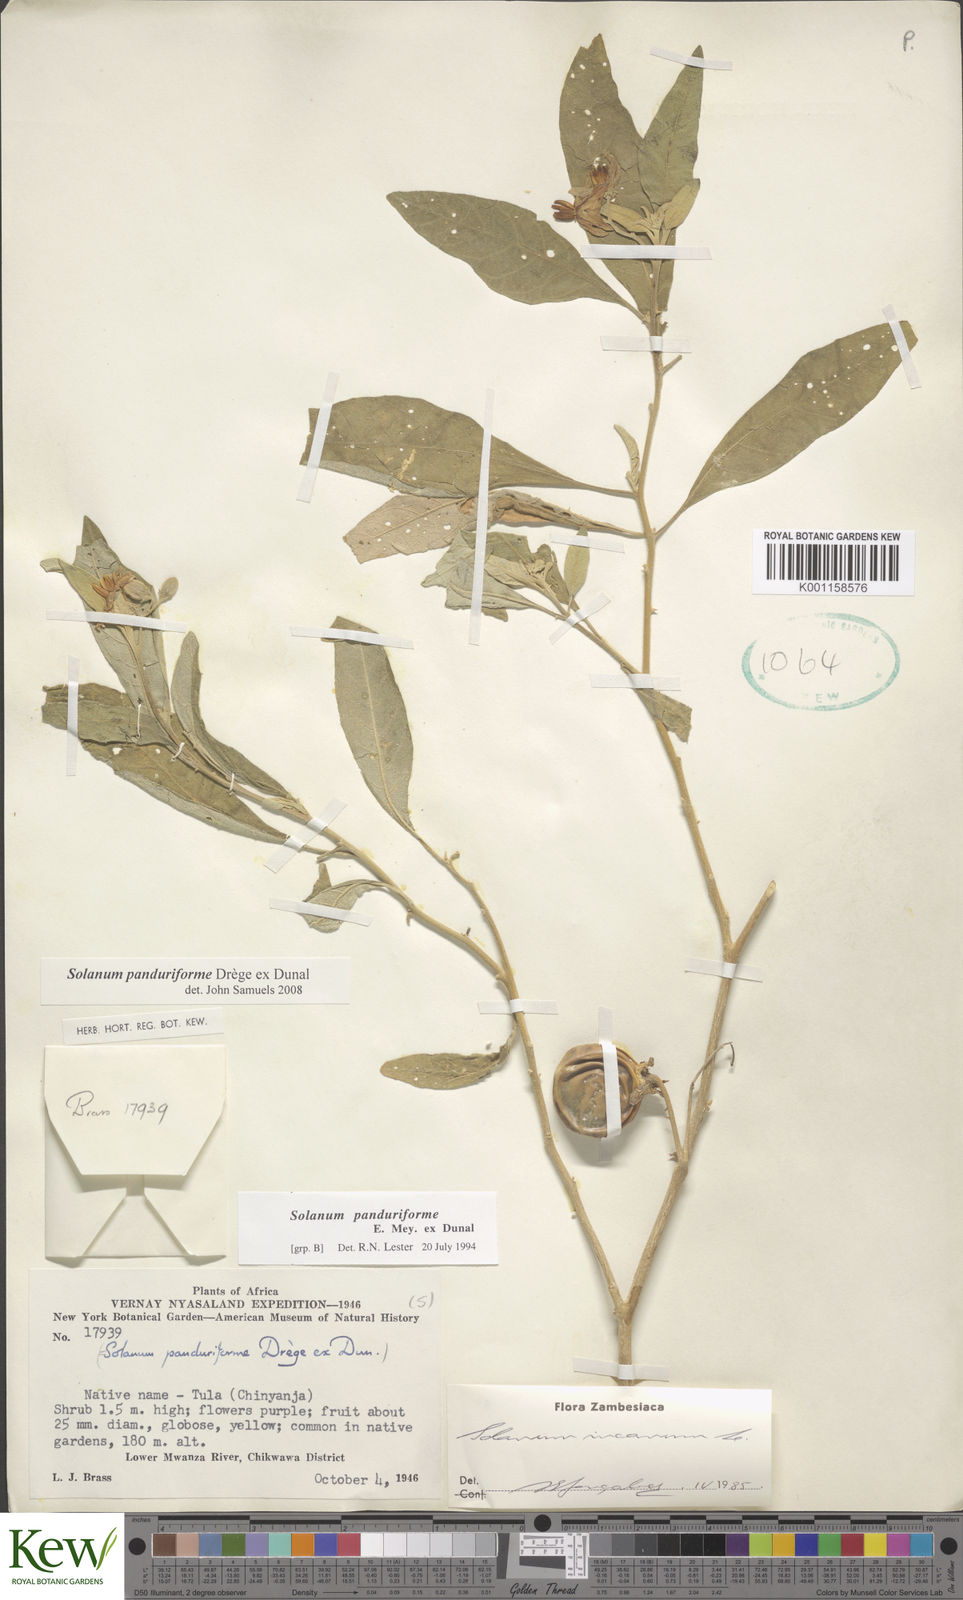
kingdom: Plantae
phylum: Tracheophyta
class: Magnoliopsida
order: Solanales
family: Solanaceae
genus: Solanum
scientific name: Solanum campylacanthum
